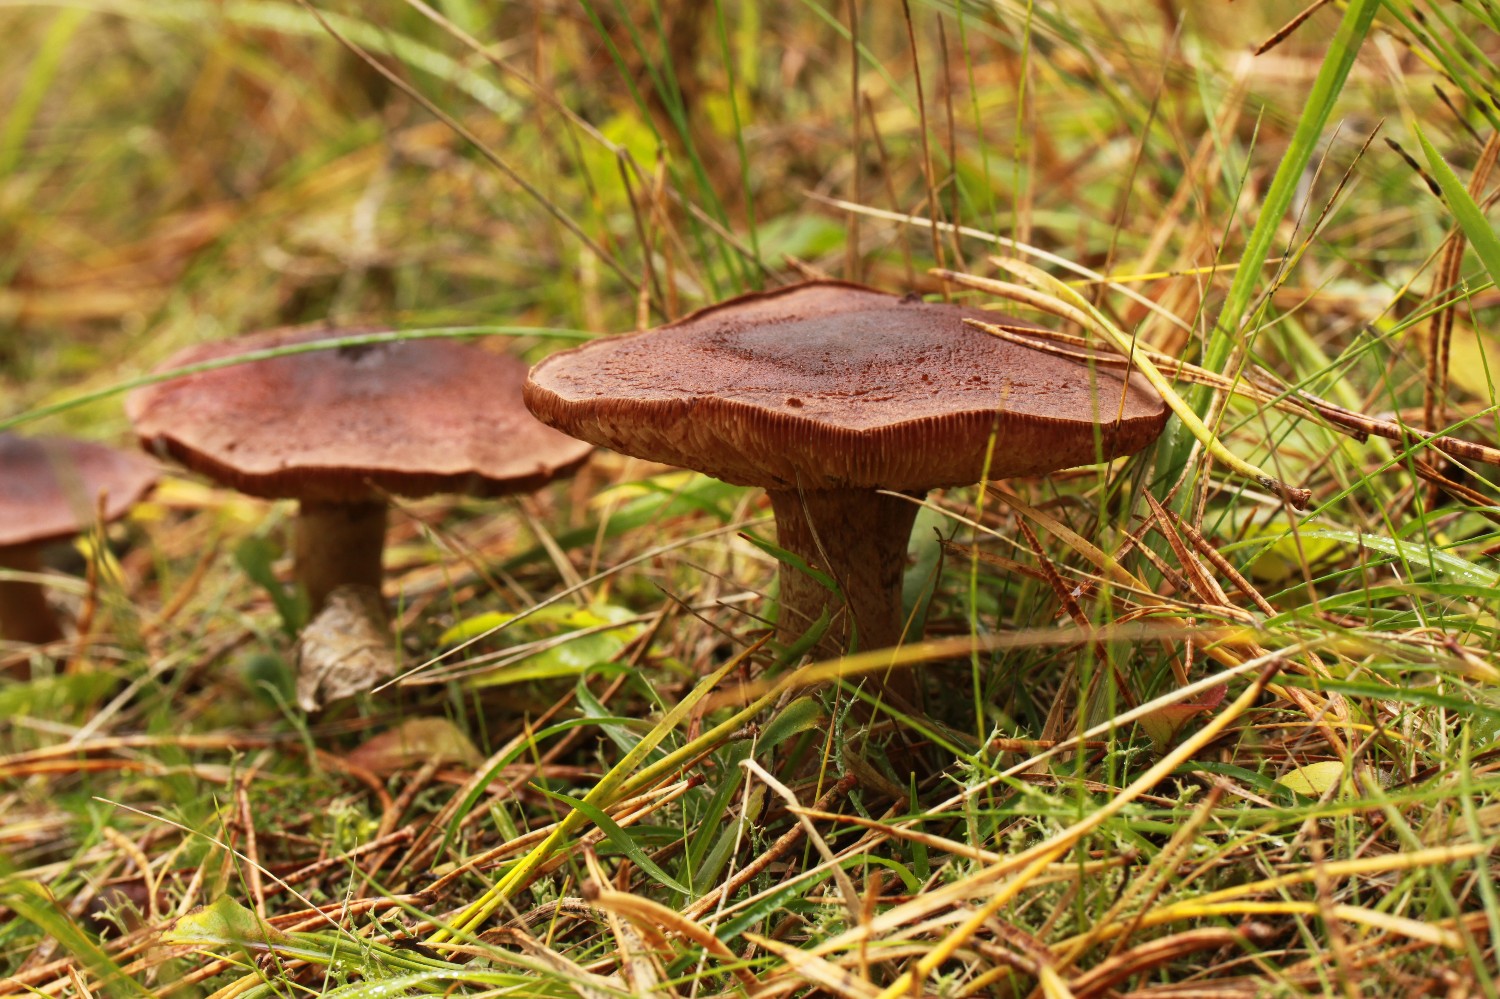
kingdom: Fungi
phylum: Basidiomycota
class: Agaricomycetes
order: Agaricales
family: Tricholomataceae
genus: Tricholoma
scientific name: Tricholoma imbricatum
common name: skællet ridderhat
